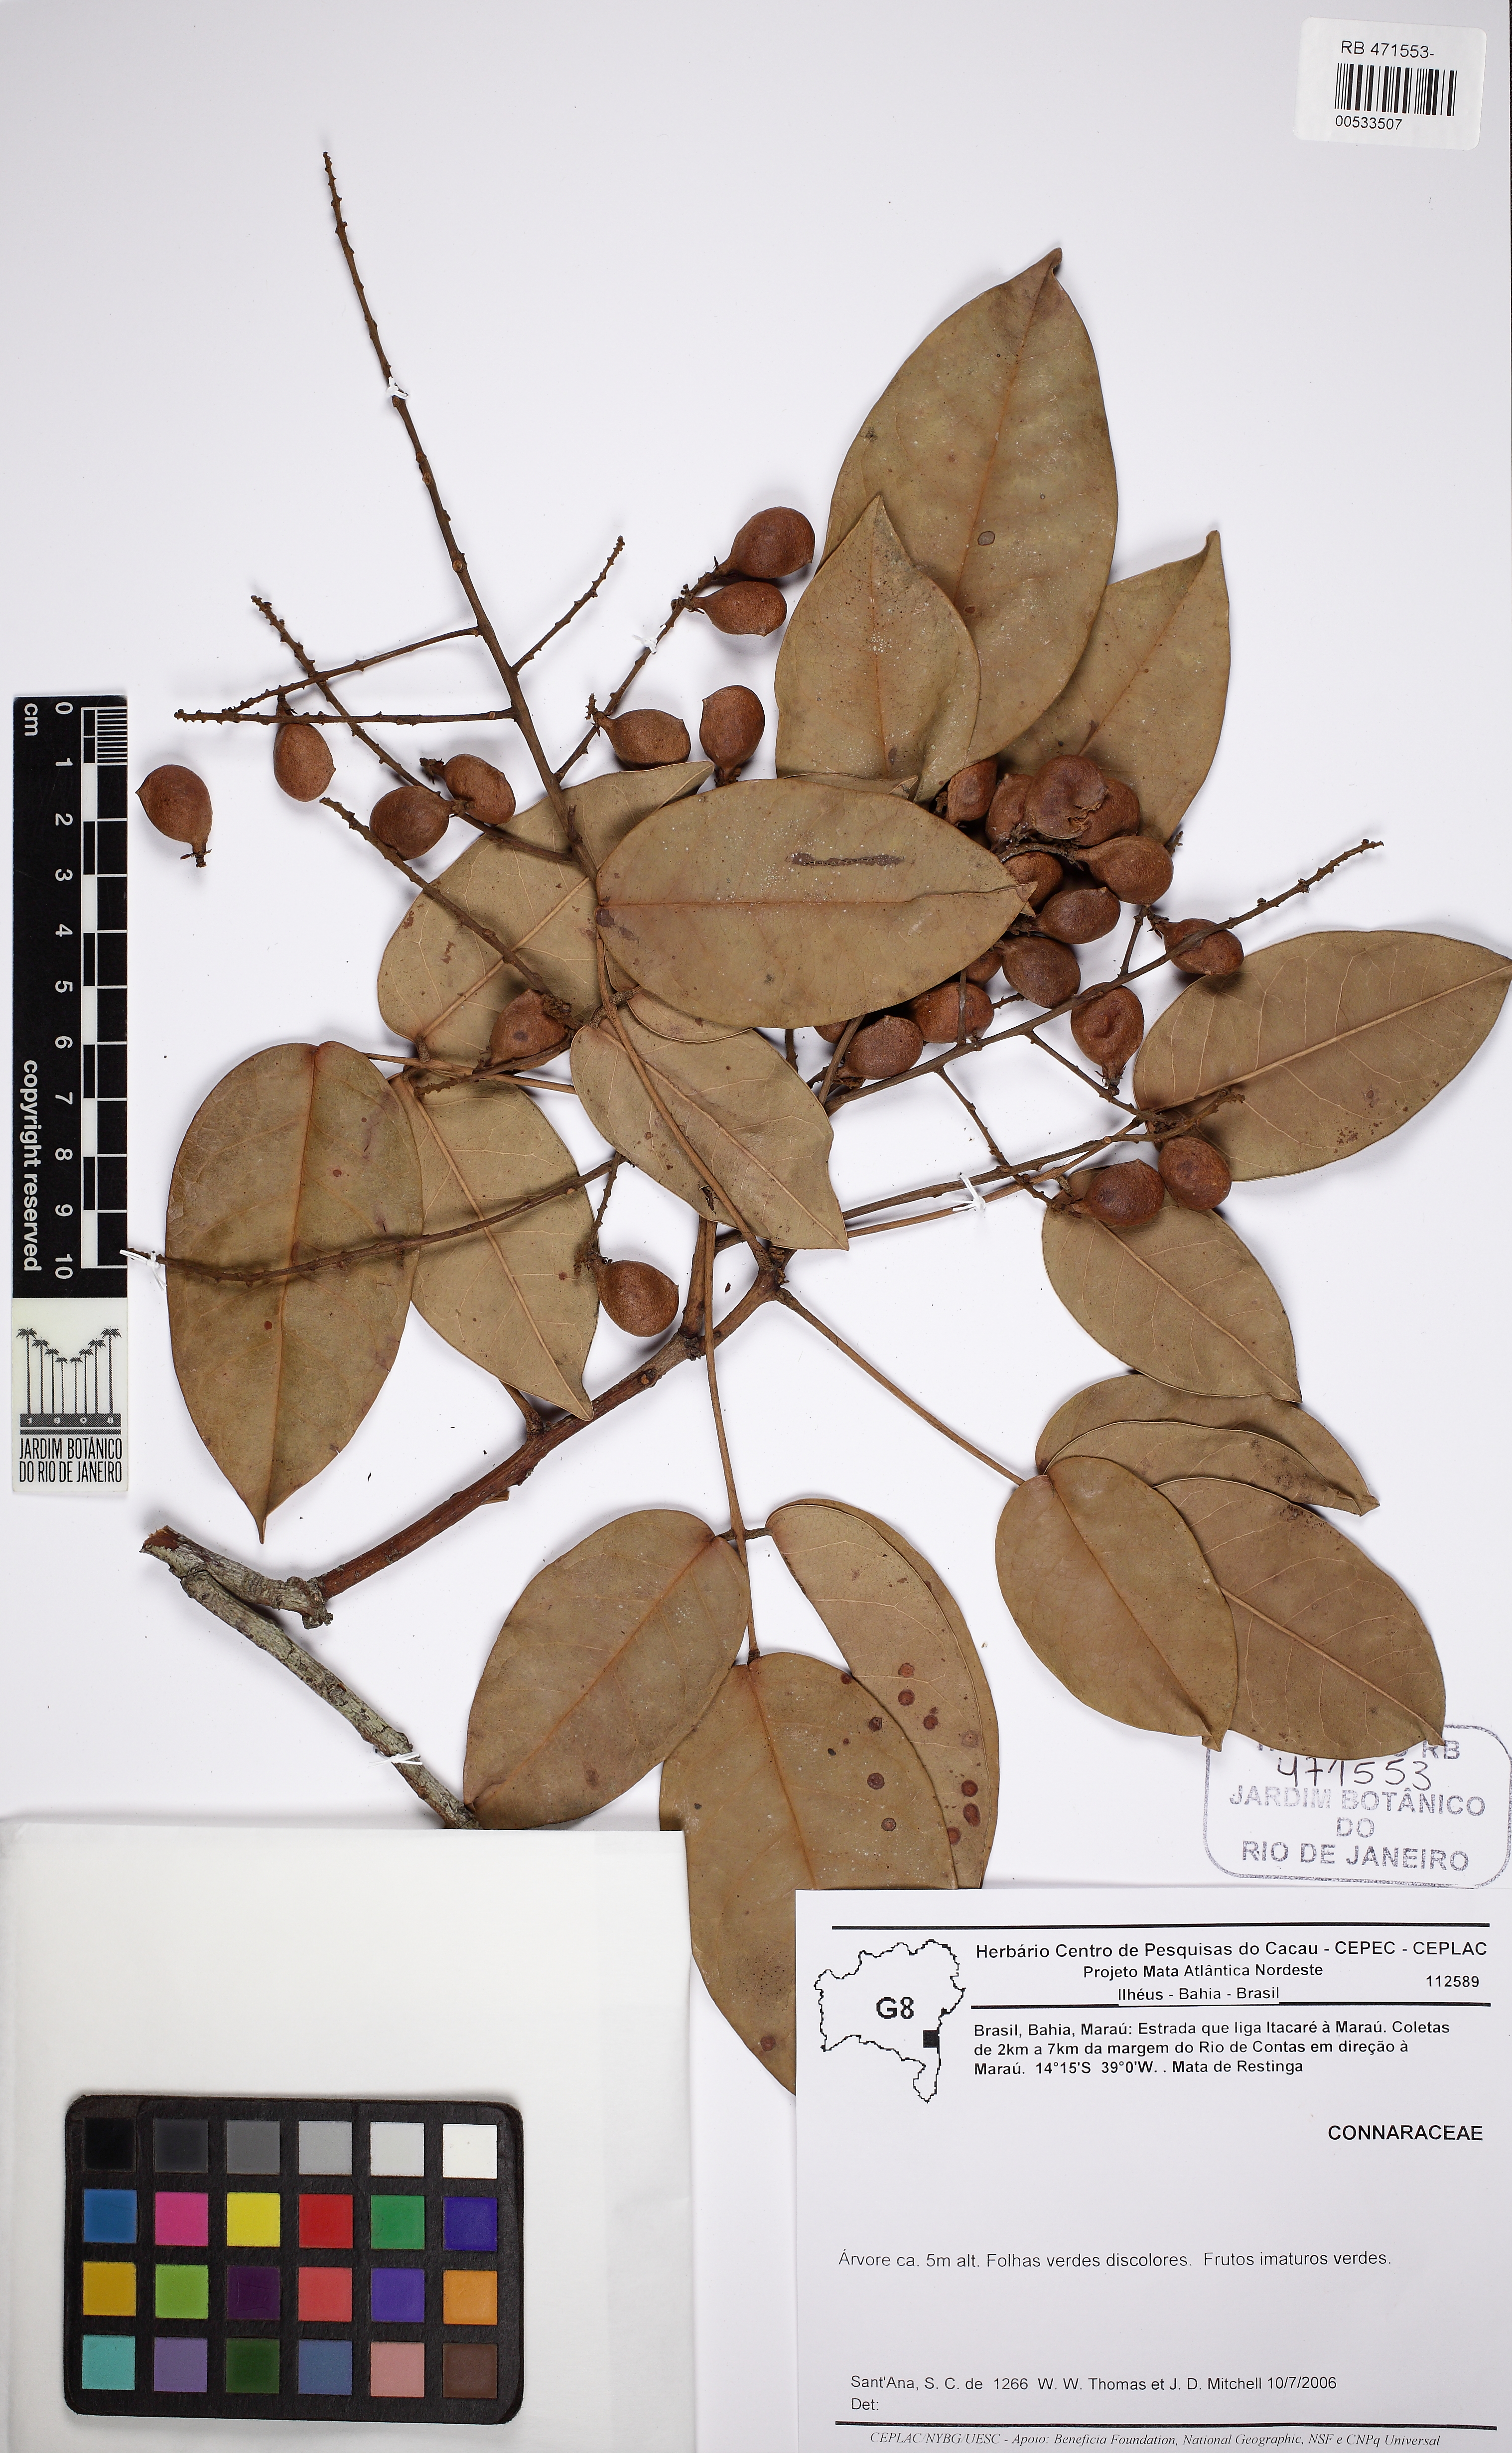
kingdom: Plantae
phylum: Tracheophyta
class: Magnoliopsida
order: Oxalidales
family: Connaraceae
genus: Connarus
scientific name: Connarus blanchetii
